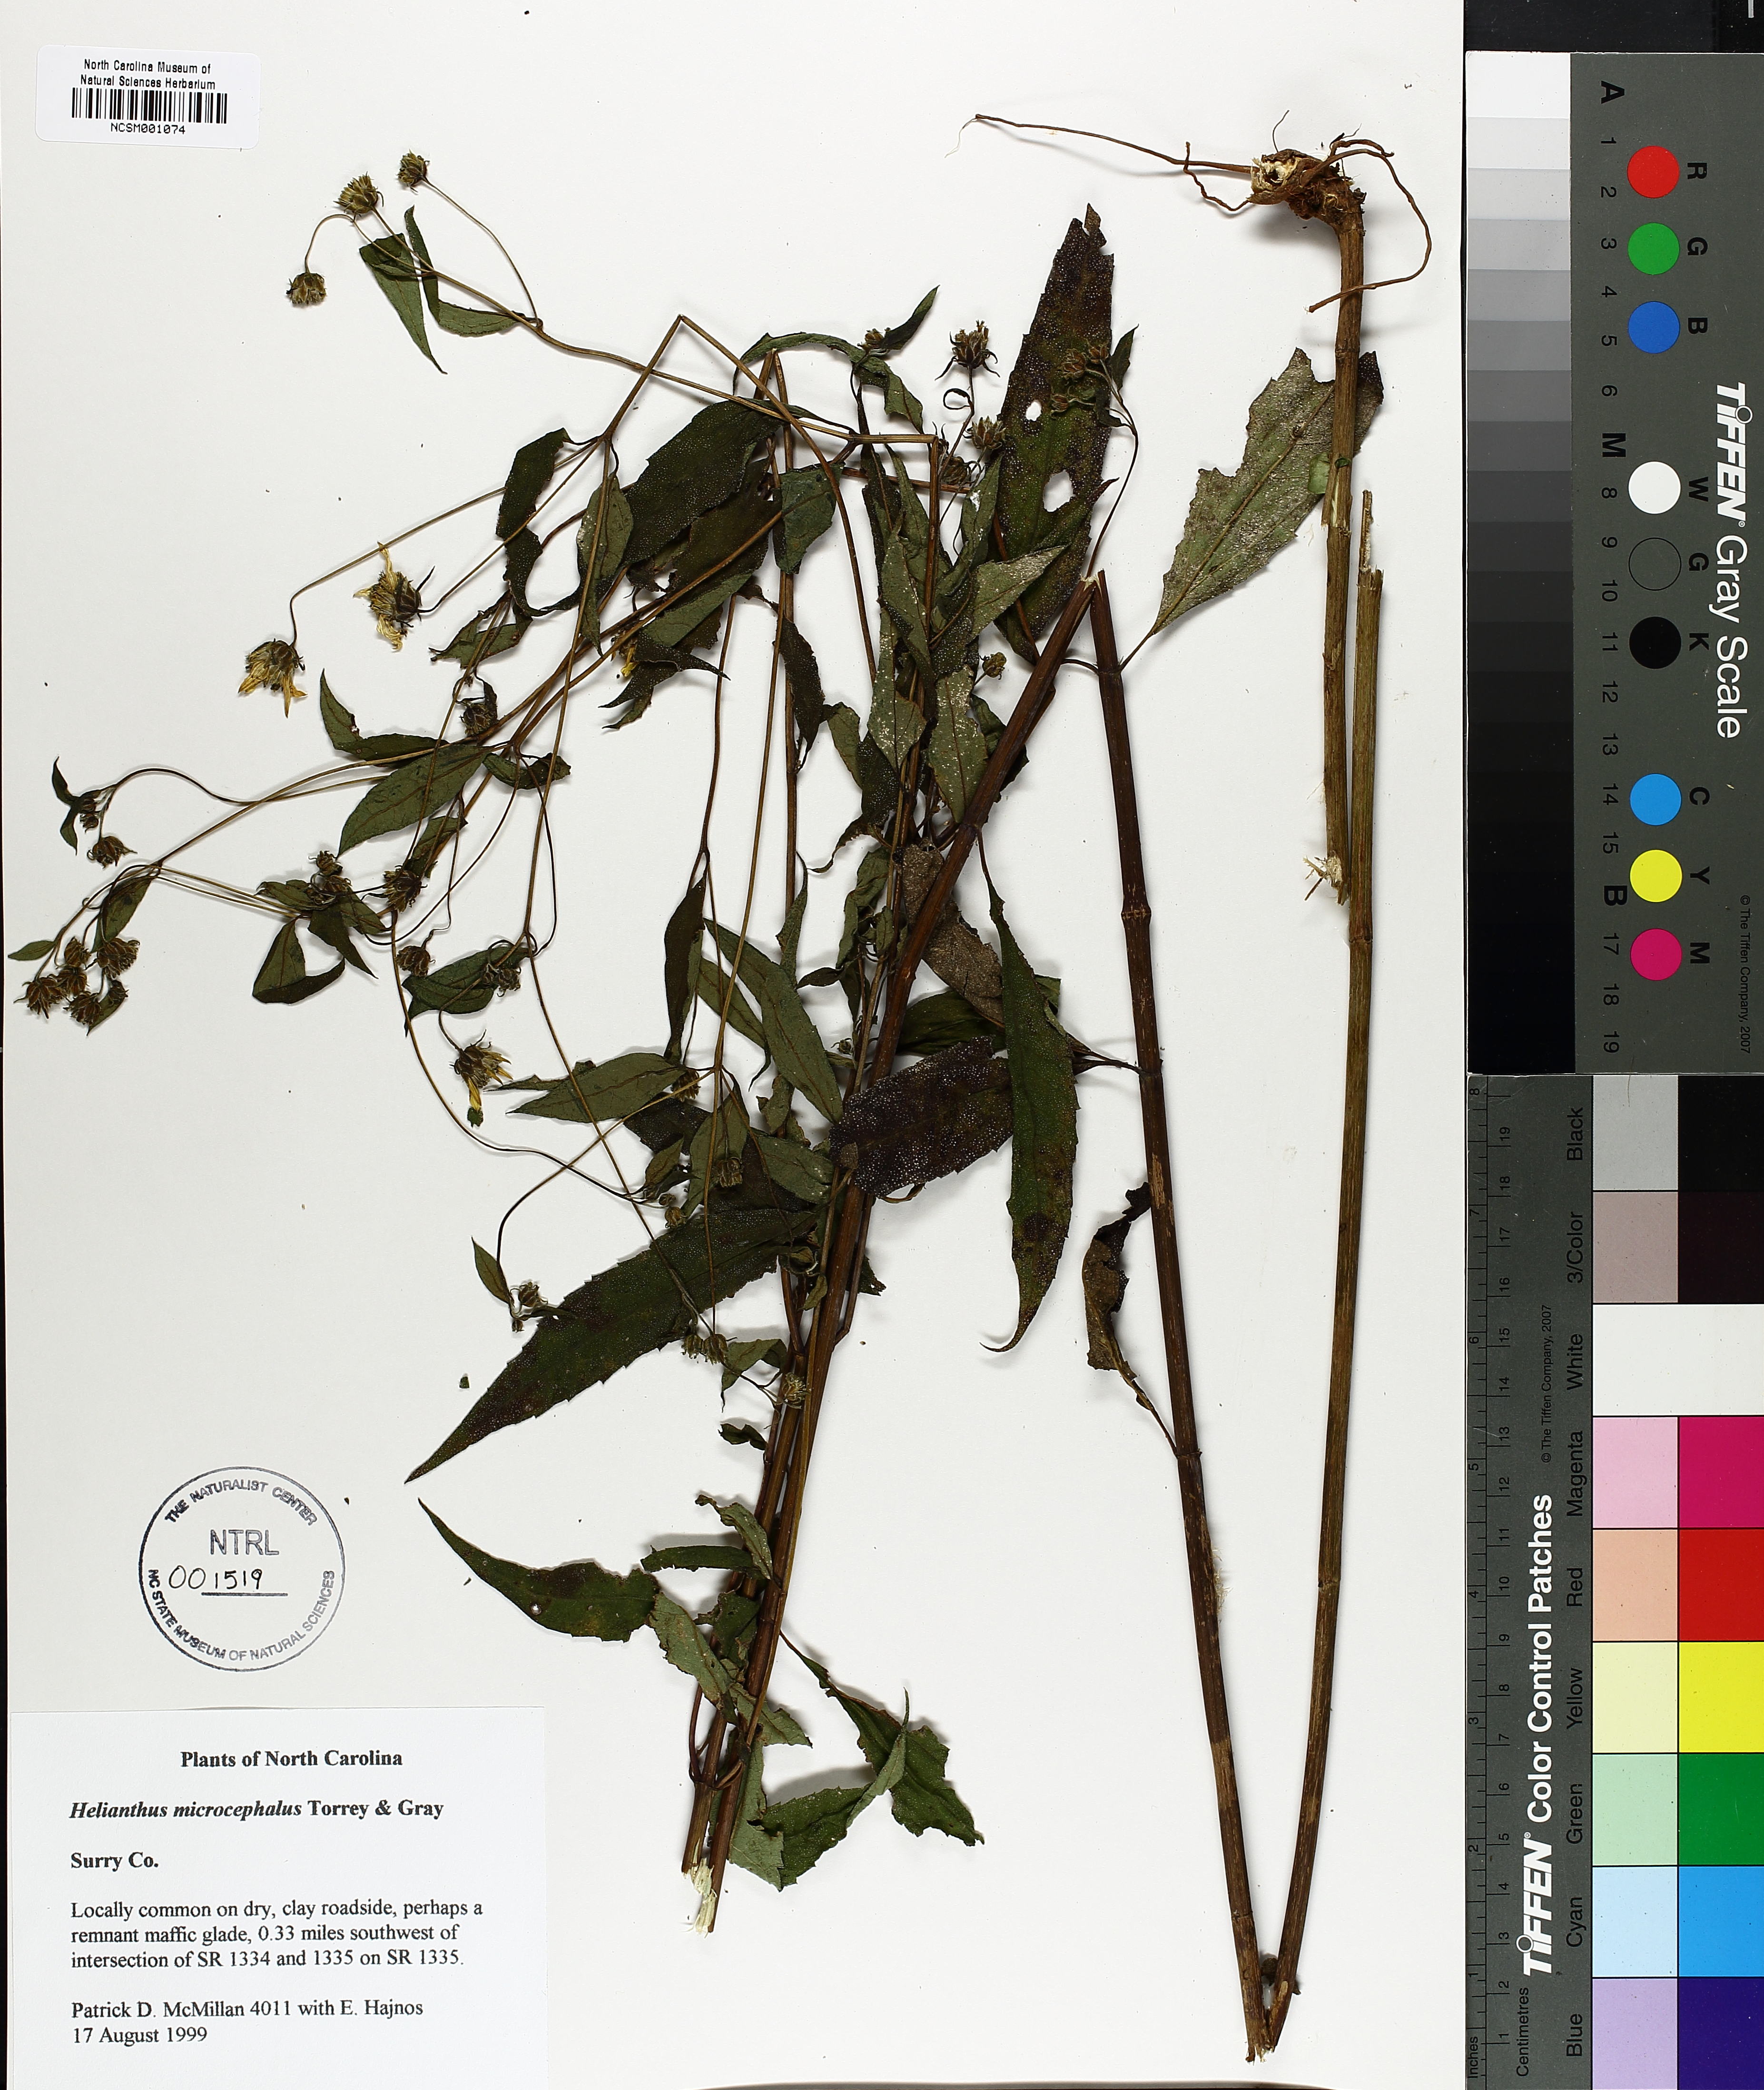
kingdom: Plantae
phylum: Tracheophyta
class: Magnoliopsida
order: Asterales
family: Asteraceae
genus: Helianthus
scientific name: Helianthus microcephalus
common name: Woodland sunflower
